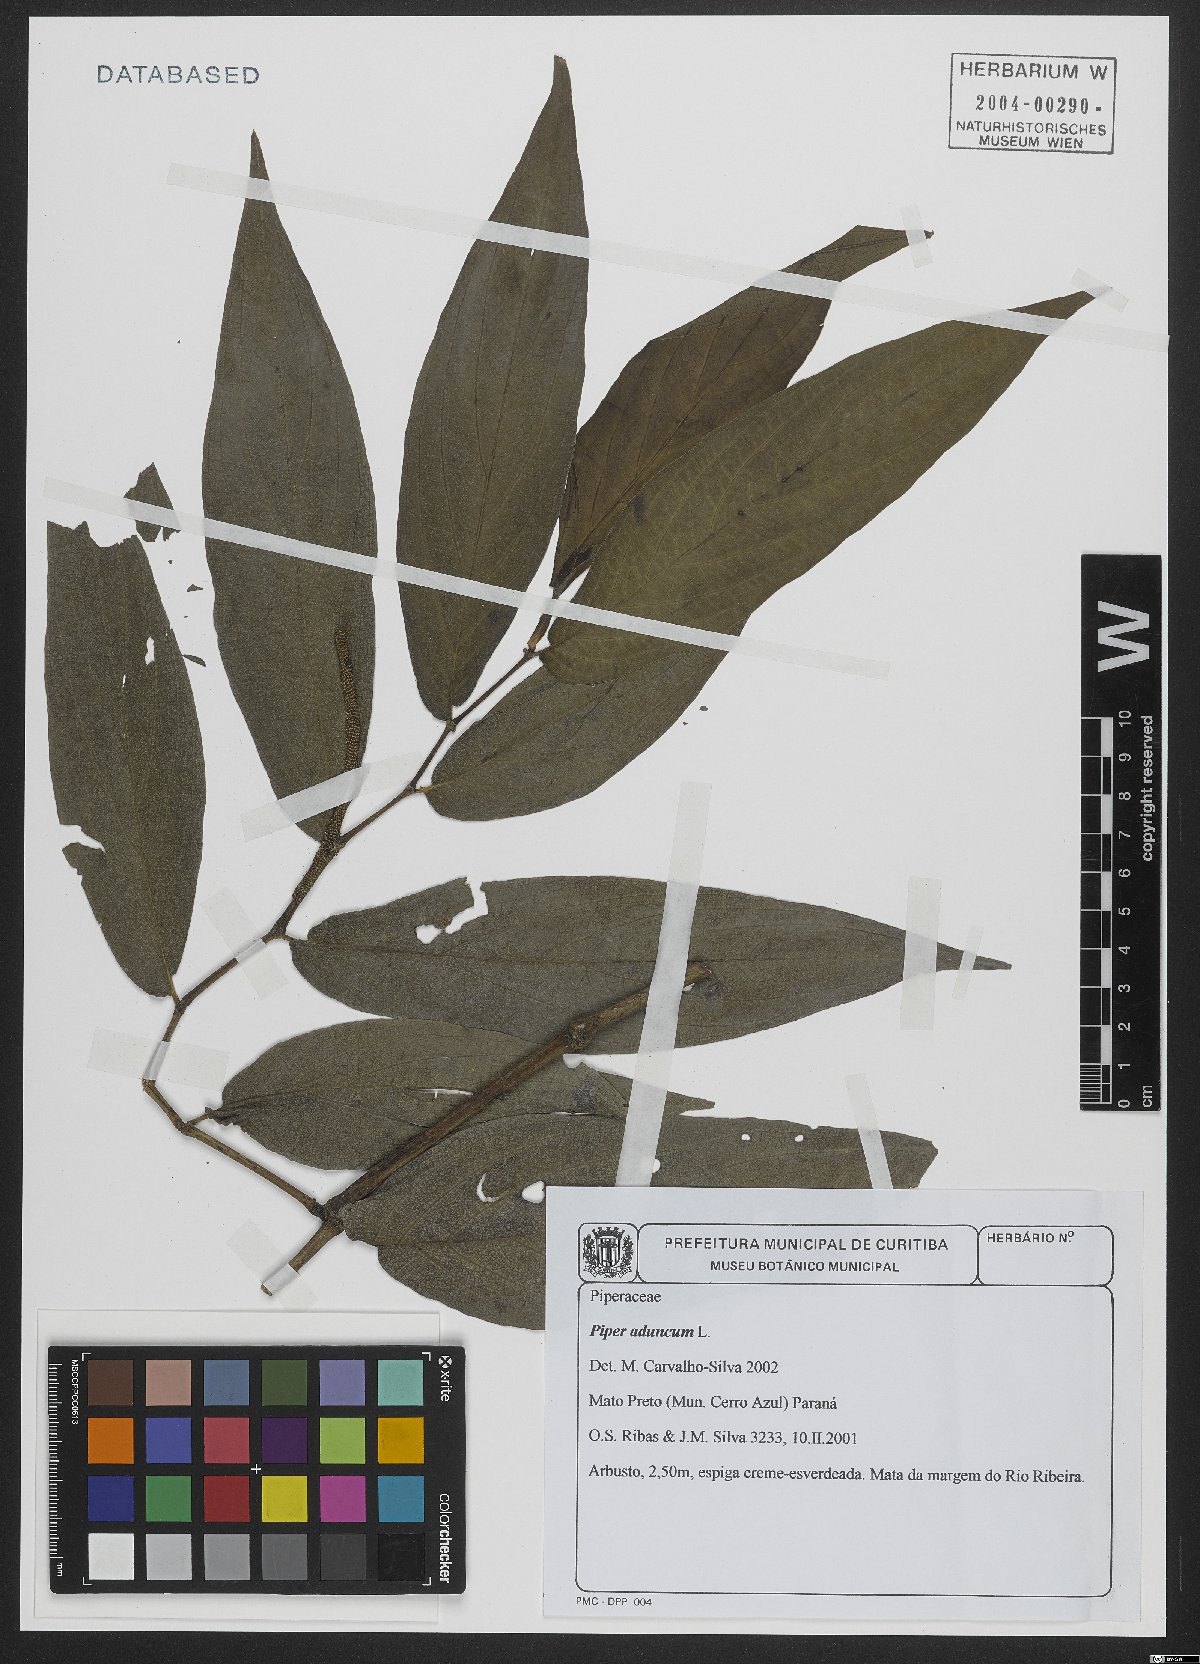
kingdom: Plantae
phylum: Tracheophyta
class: Magnoliopsida
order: Piperales
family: Piperaceae
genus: Piper
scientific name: Piper aduncum
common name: Spiked pepper
